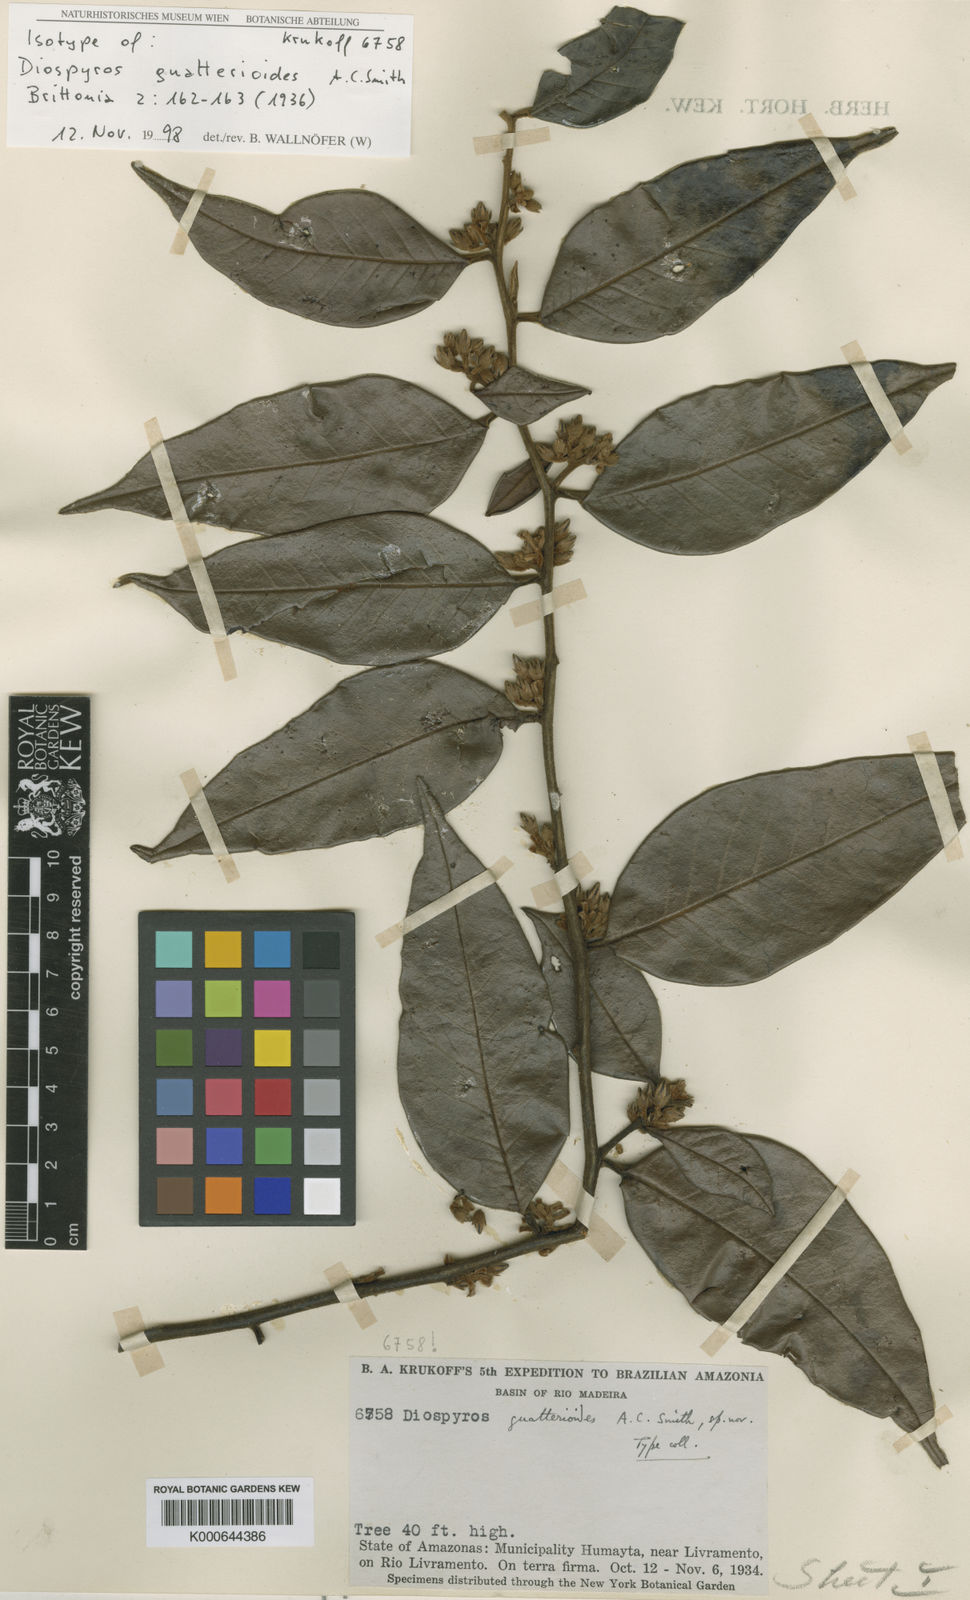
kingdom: Plantae
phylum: Tracheophyta
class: Magnoliopsida
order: Ericales
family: Ebenaceae
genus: Diospyros
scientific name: Diospyros guatterioides
